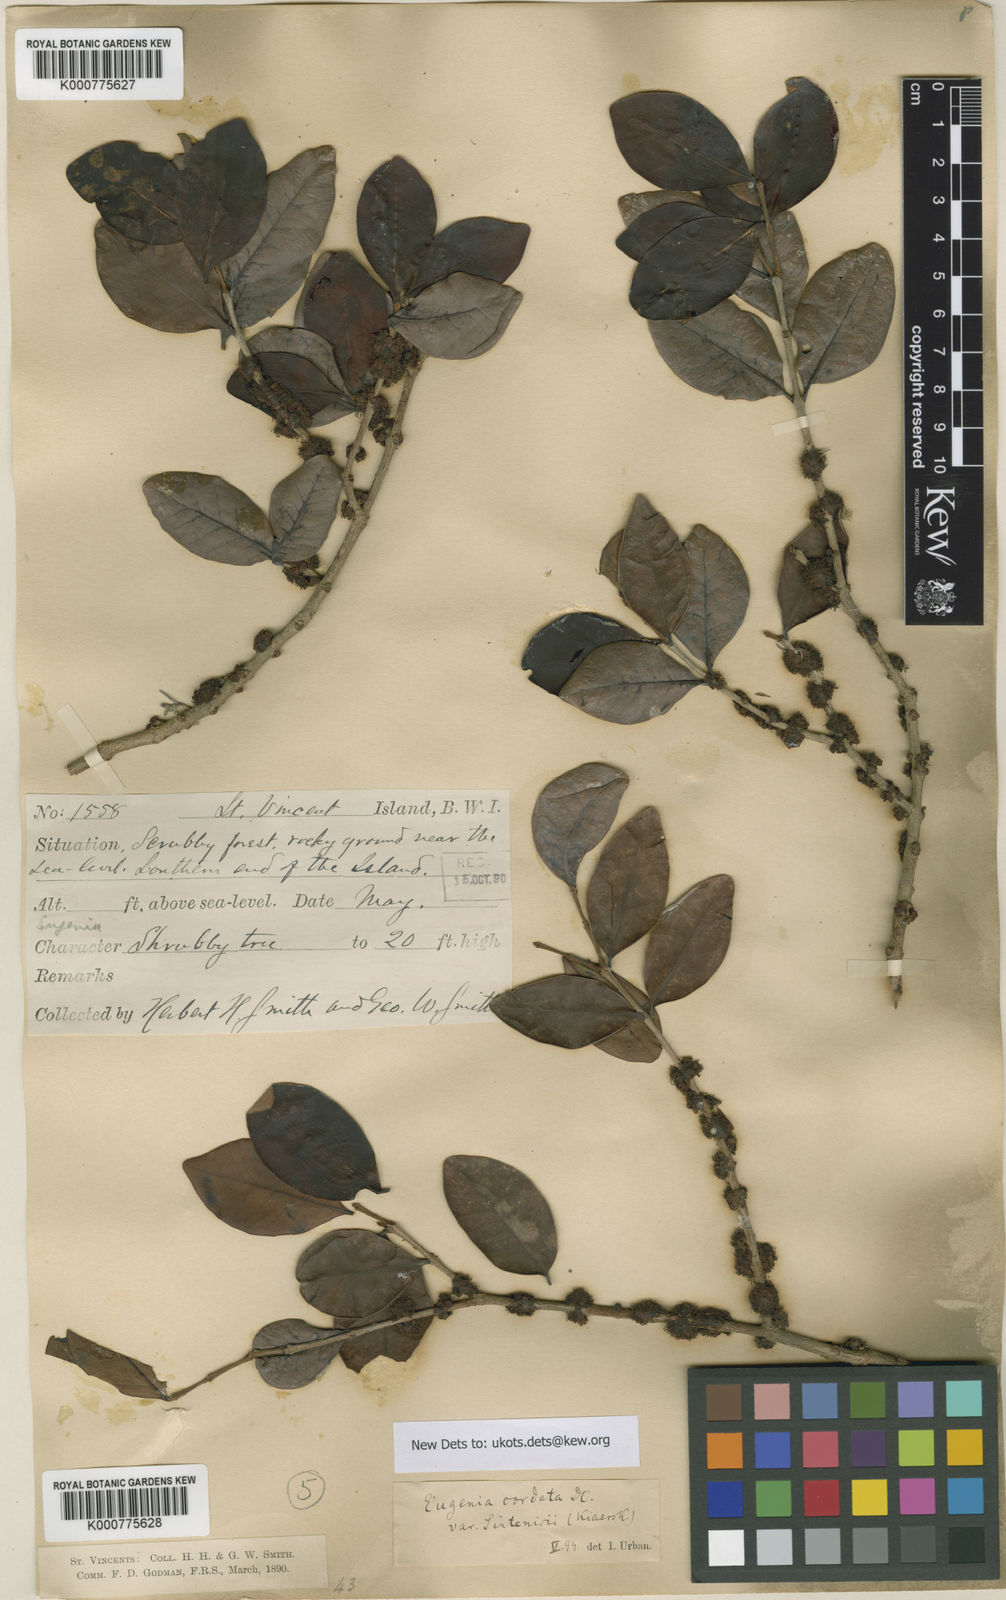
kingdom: Plantae
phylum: Tracheophyta
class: Magnoliopsida
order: Myrtales
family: Myrtaceae
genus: Eugenia
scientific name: Eugenia cordata
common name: Lathberry
